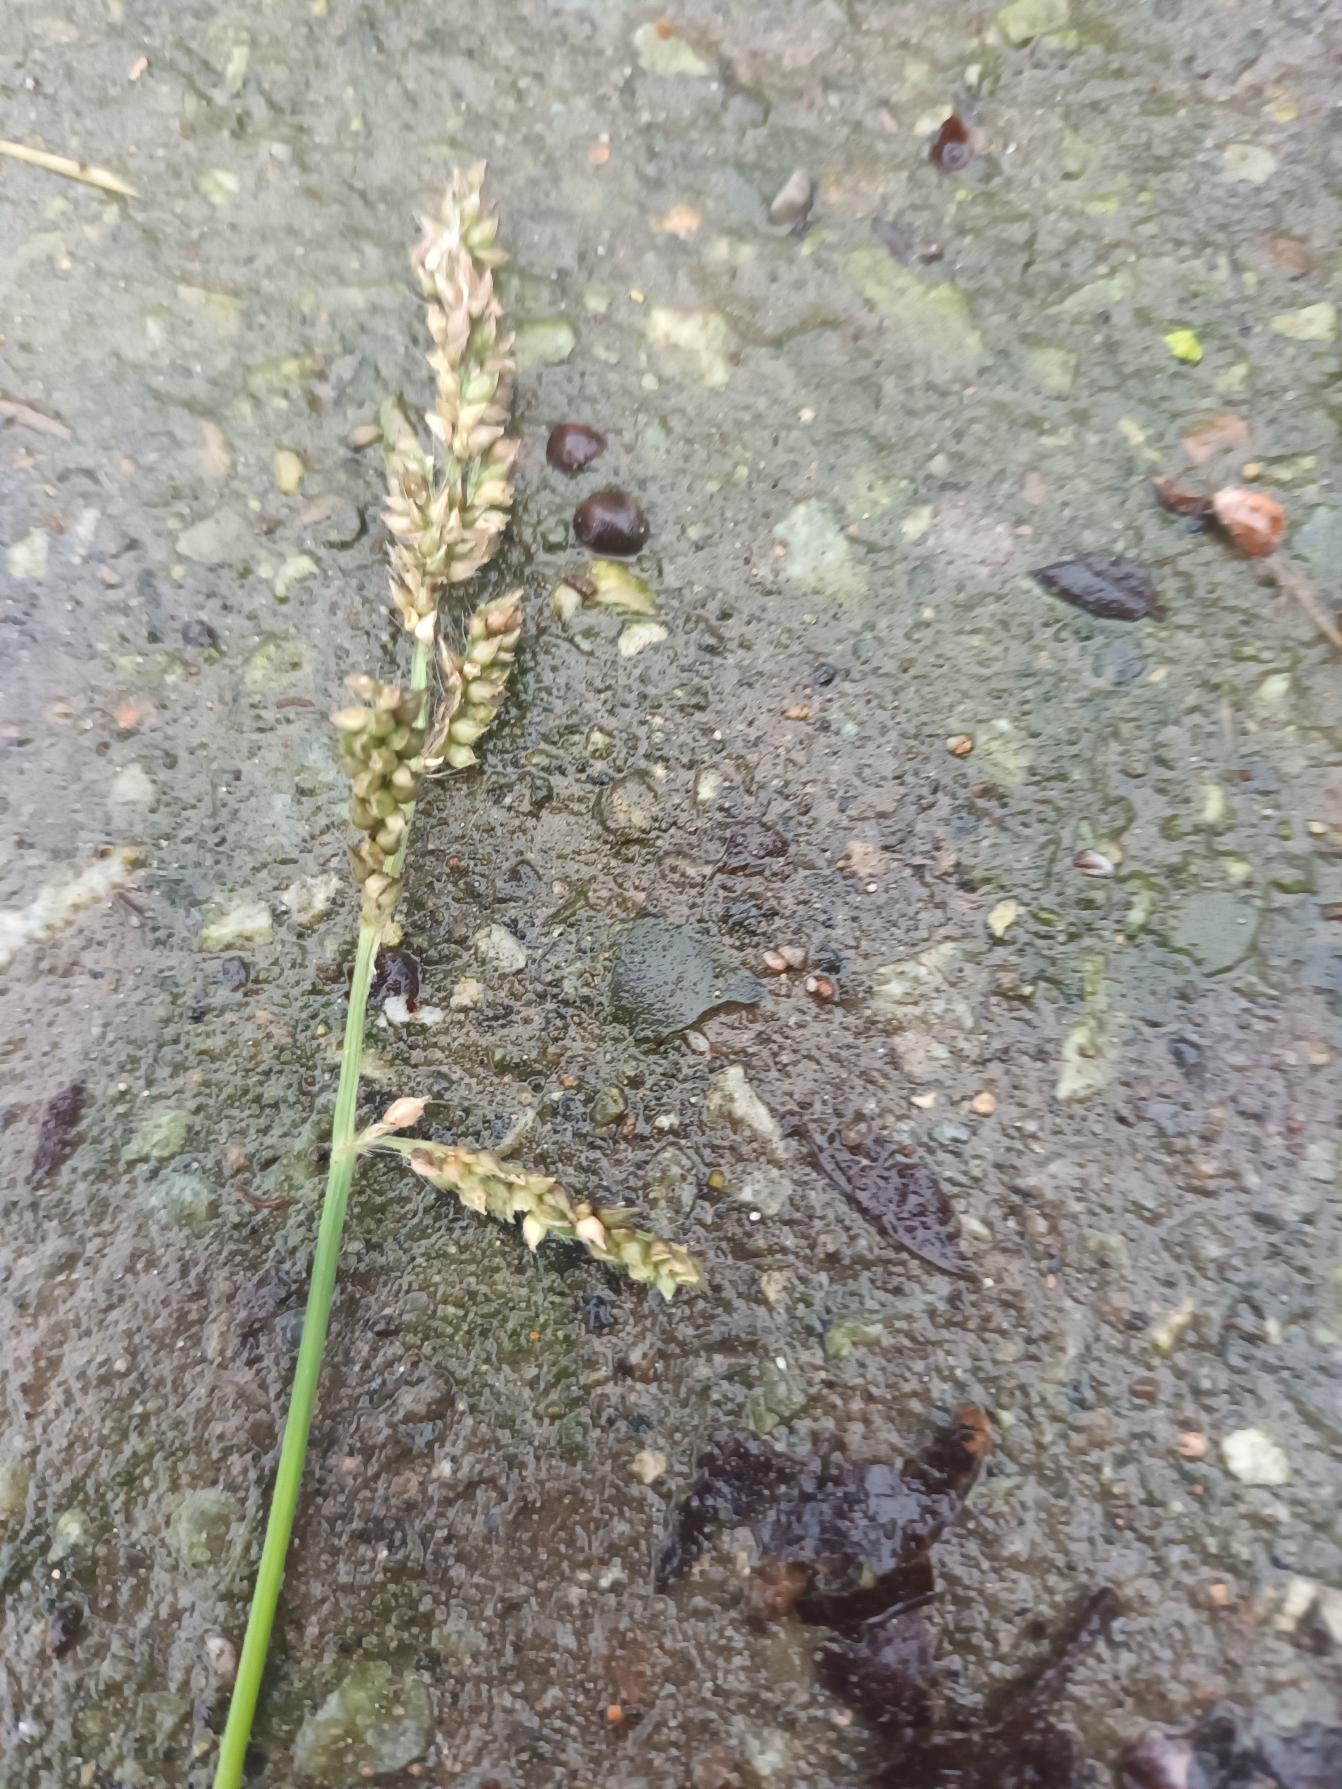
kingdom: Plantae
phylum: Tracheophyta
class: Liliopsida
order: Poales
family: Poaceae
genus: Echinochloa
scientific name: Echinochloa crus-galli
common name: Almindelig hanespore
